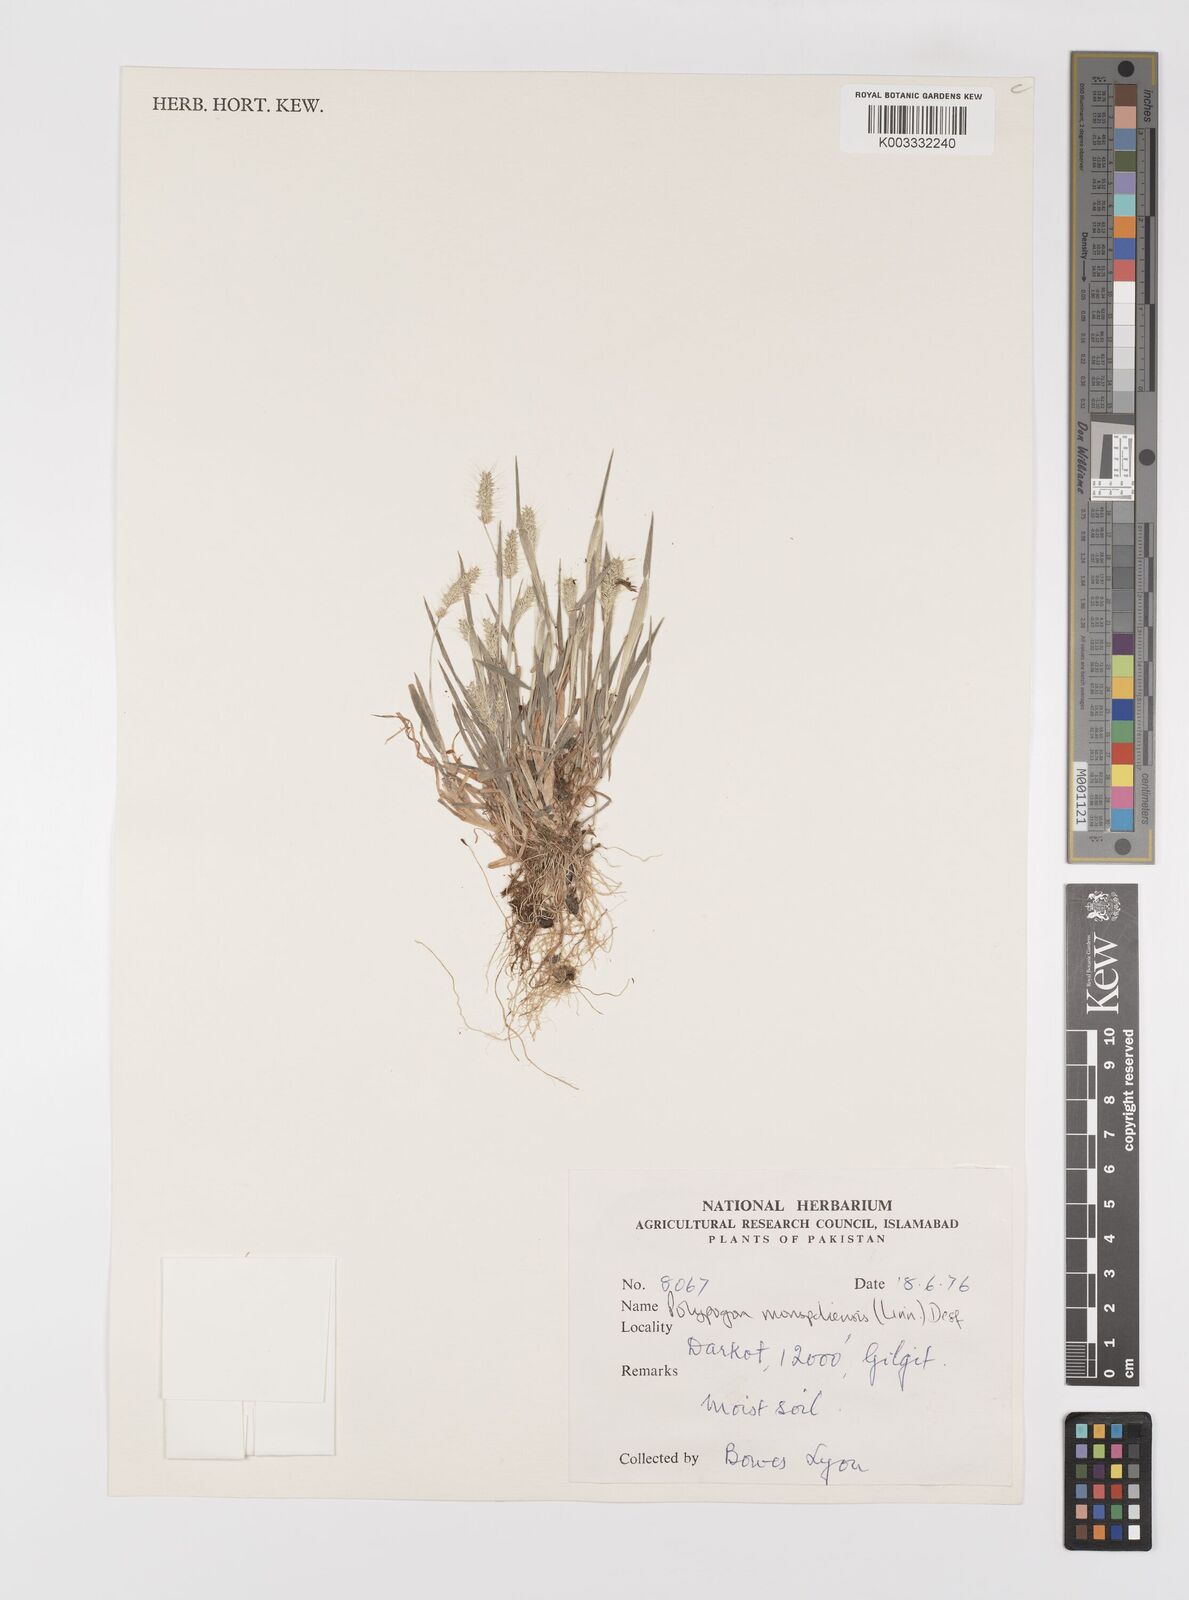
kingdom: Plantae
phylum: Tracheophyta
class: Liliopsida
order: Poales
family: Poaceae
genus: Polypogon
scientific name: Polypogon monspeliensis
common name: Annual rabbitsfoot grass
